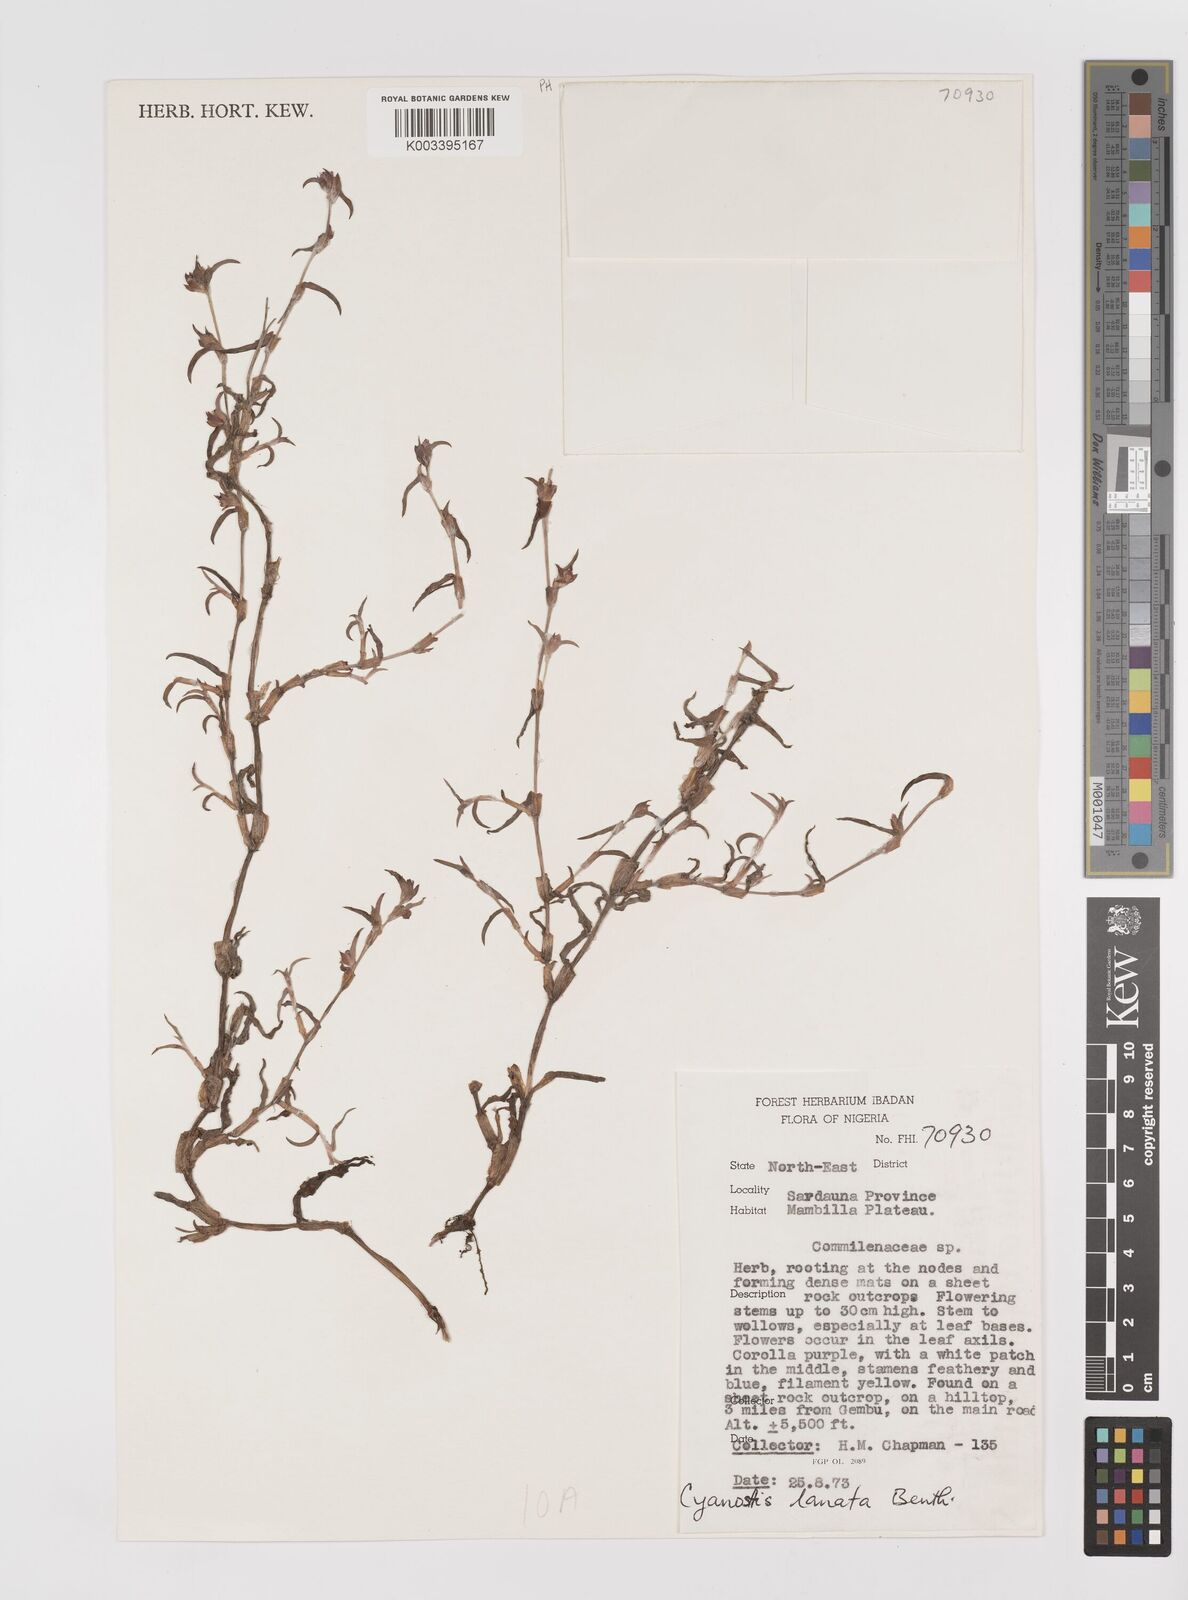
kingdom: Plantae
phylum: Tracheophyta
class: Liliopsida
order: Commelinales
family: Commelinaceae
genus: Cyanotis
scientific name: Cyanotis lanata
